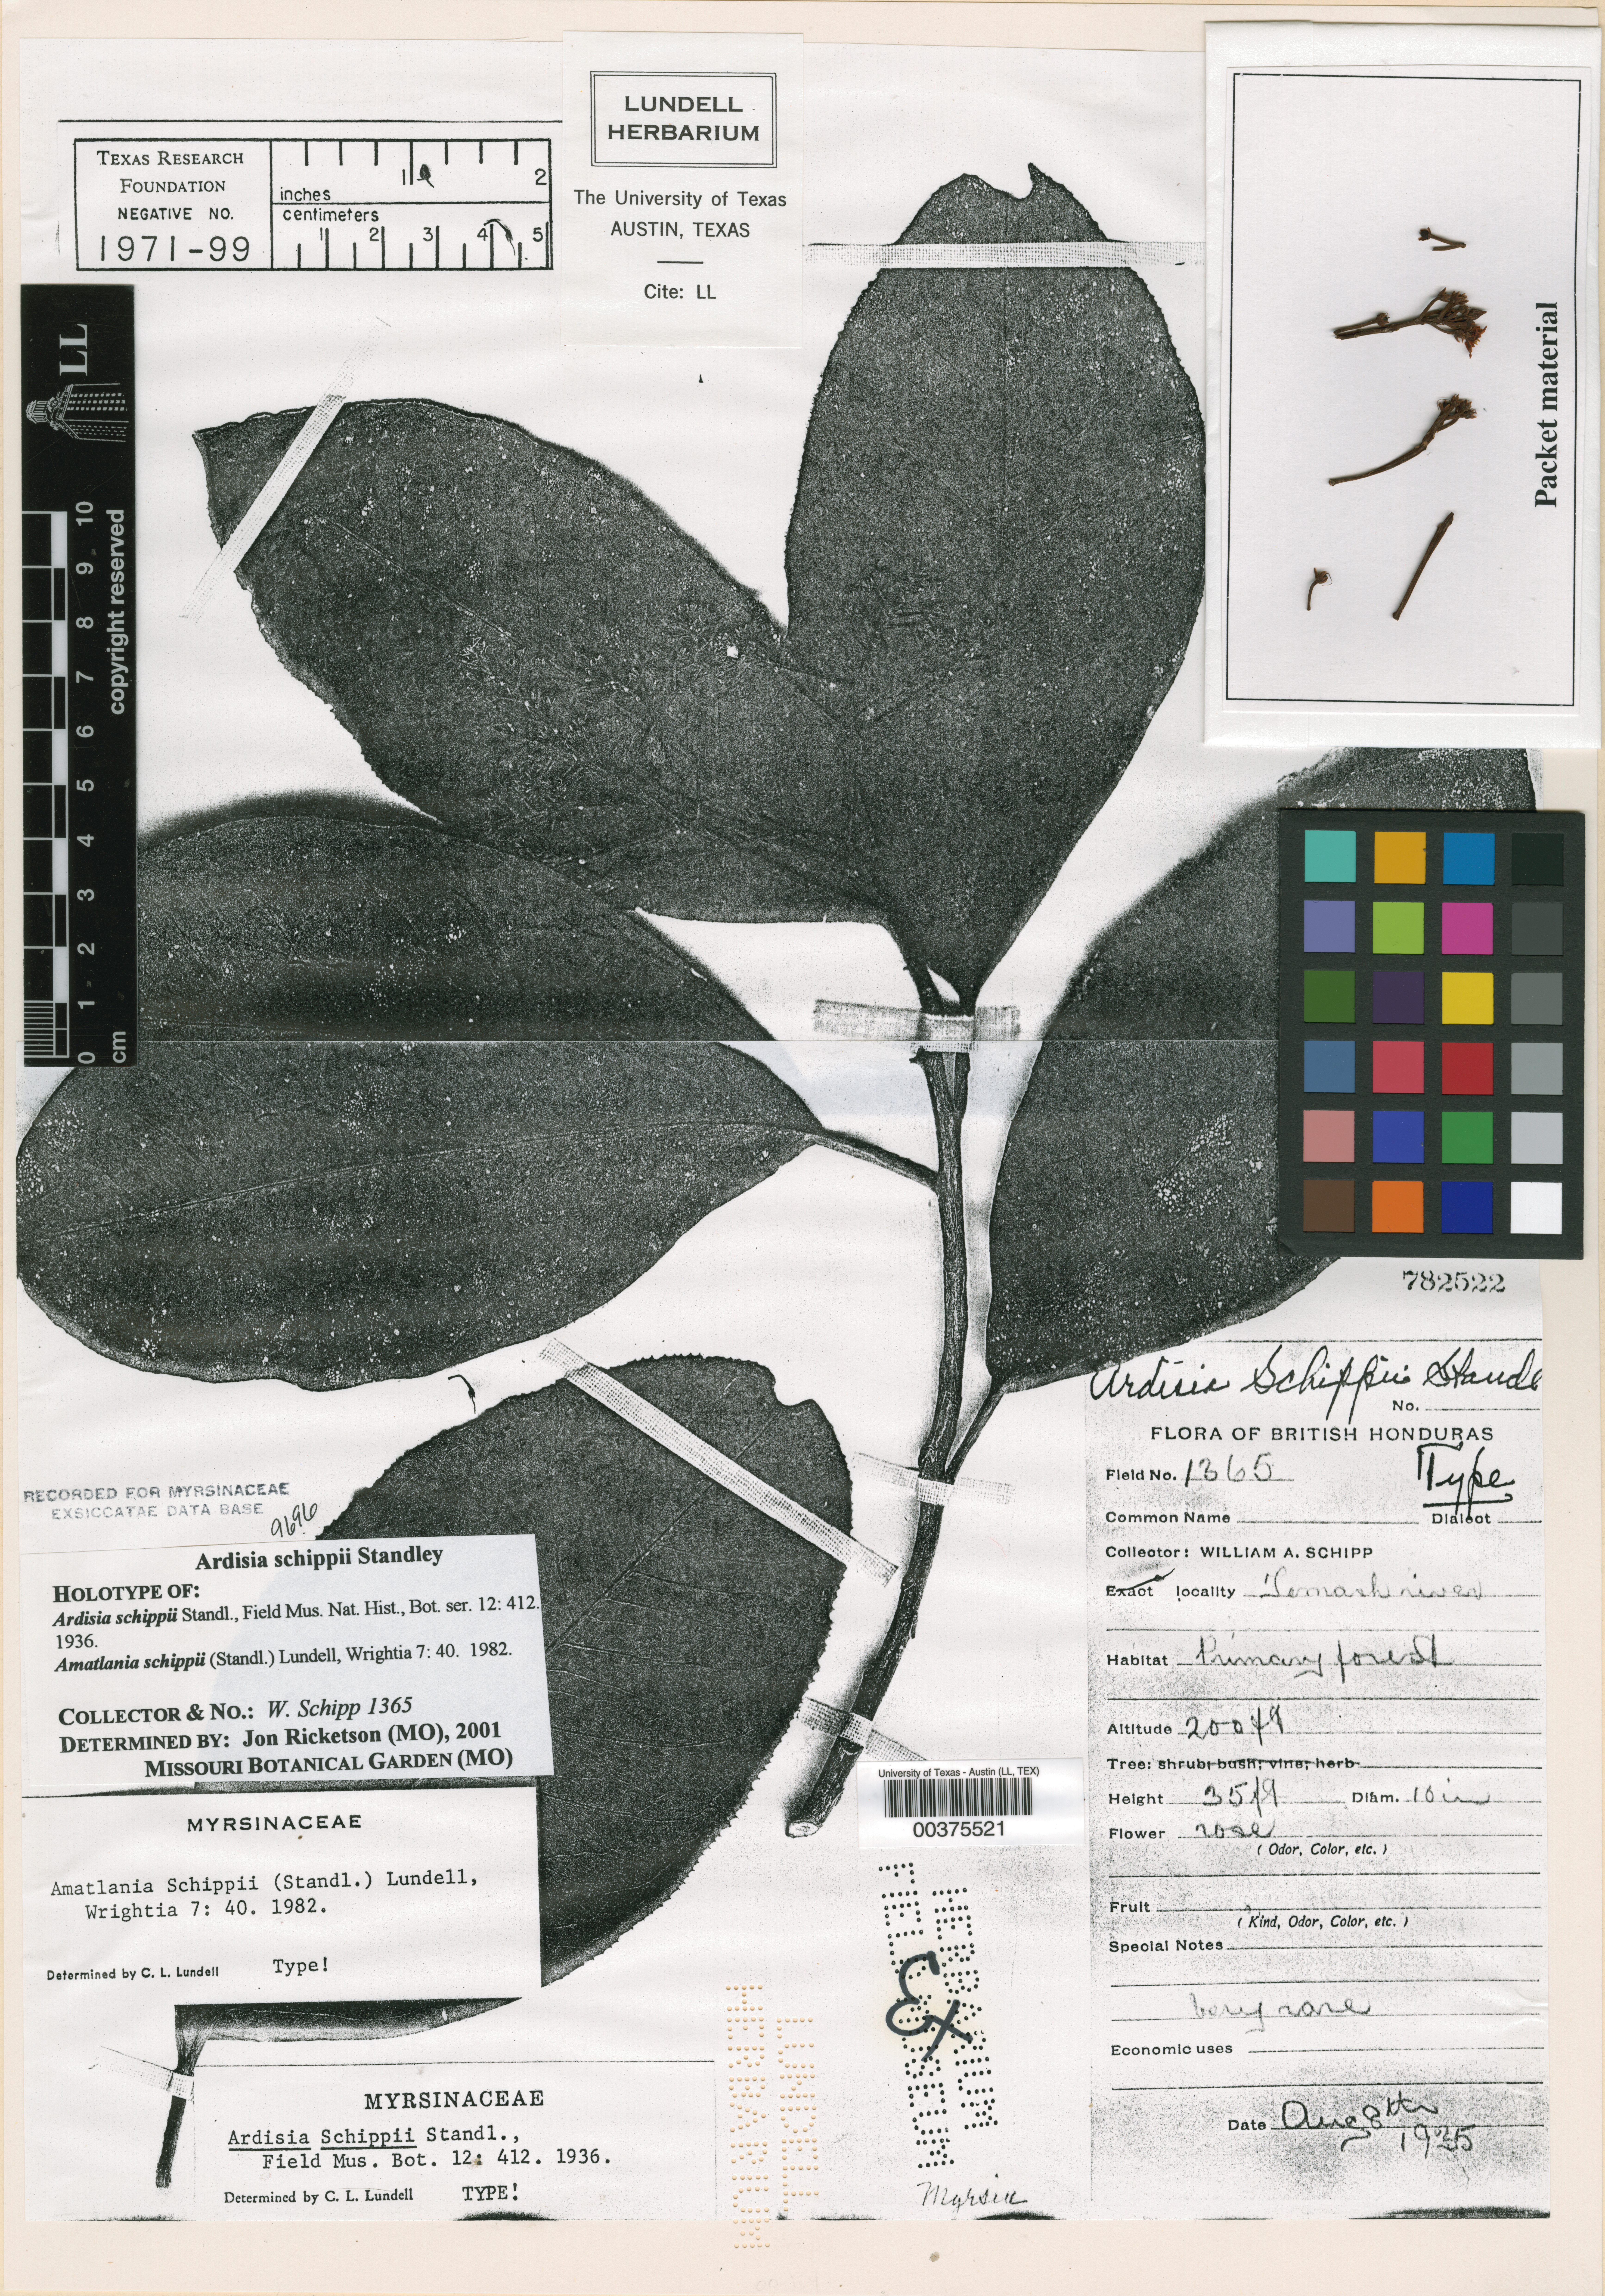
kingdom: Plantae
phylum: Tracheophyta
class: Magnoliopsida
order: Ericales
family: Primulaceae
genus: Ardisia
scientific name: Ardisia schippii
